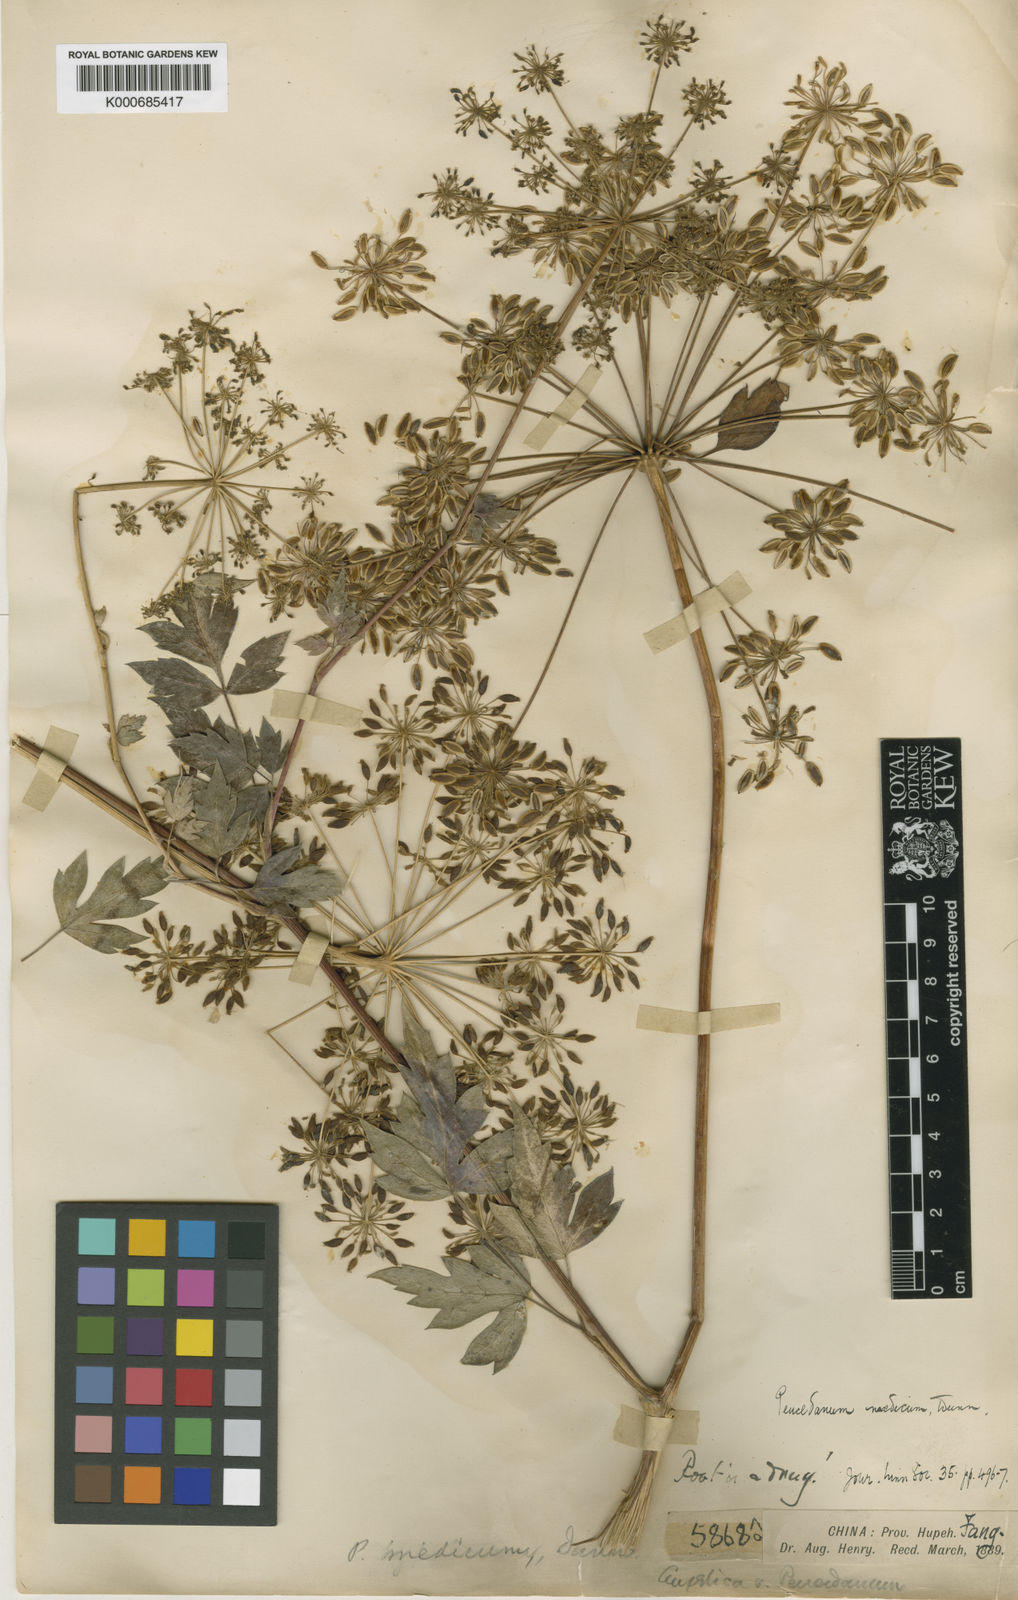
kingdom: Plantae
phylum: Tracheophyta
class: Magnoliopsida
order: Apiales
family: Apiaceae
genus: Peucedanum
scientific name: Peucedanum medicum
